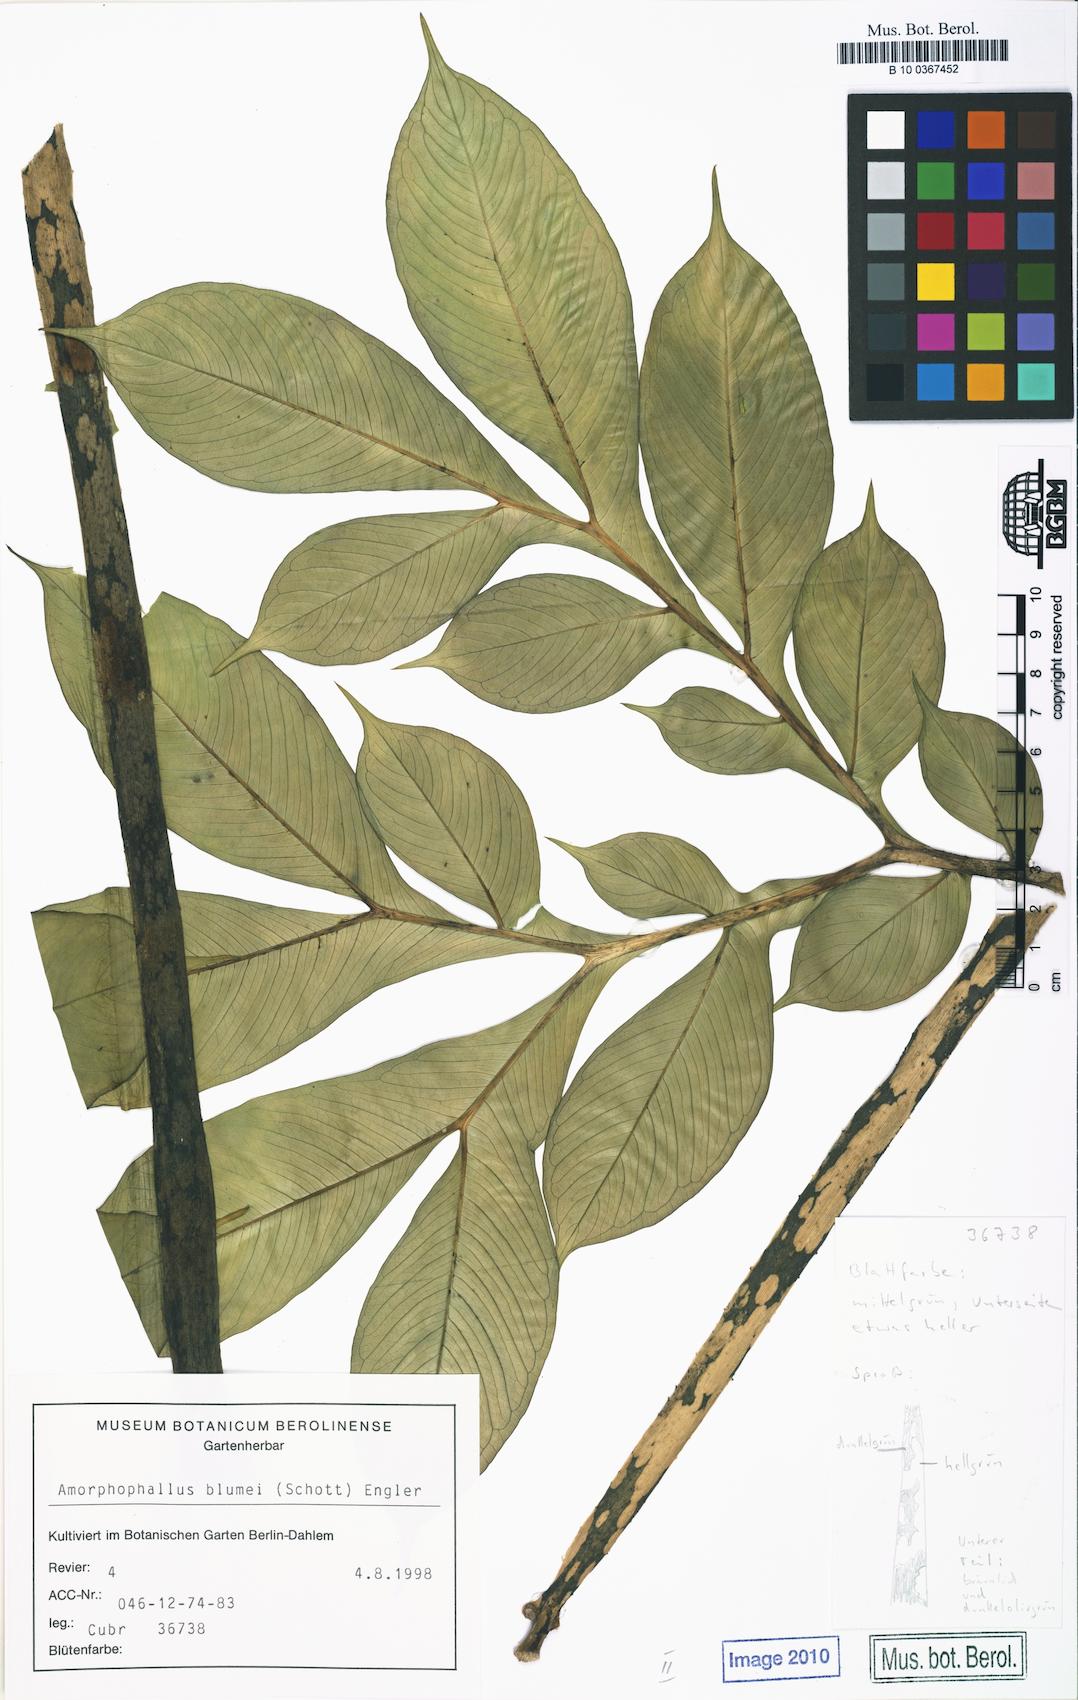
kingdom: Plantae
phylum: Tracheophyta
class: Liliopsida
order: Alismatales
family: Araceae
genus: Amorphophallus
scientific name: Amorphophallus paeoniifolius
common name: Telinga-potato
